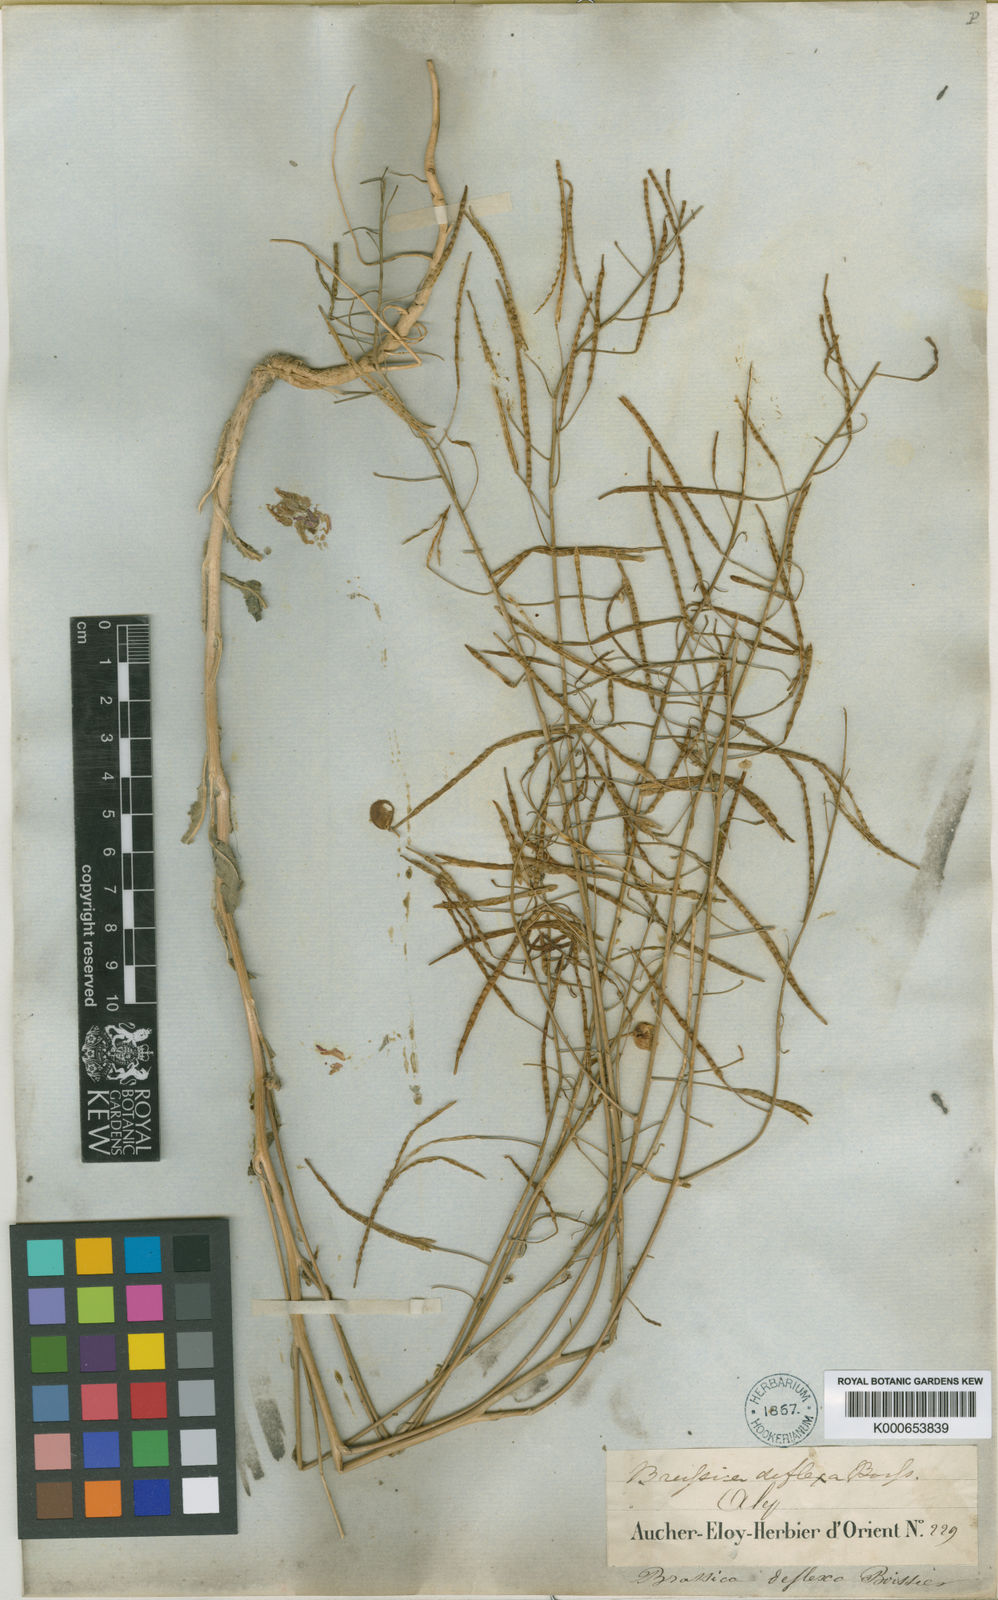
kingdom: Plantae
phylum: Tracheophyta
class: Magnoliopsida
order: Brassicales
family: Brassicaceae
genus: Brassica
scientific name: Brassica deflexa
